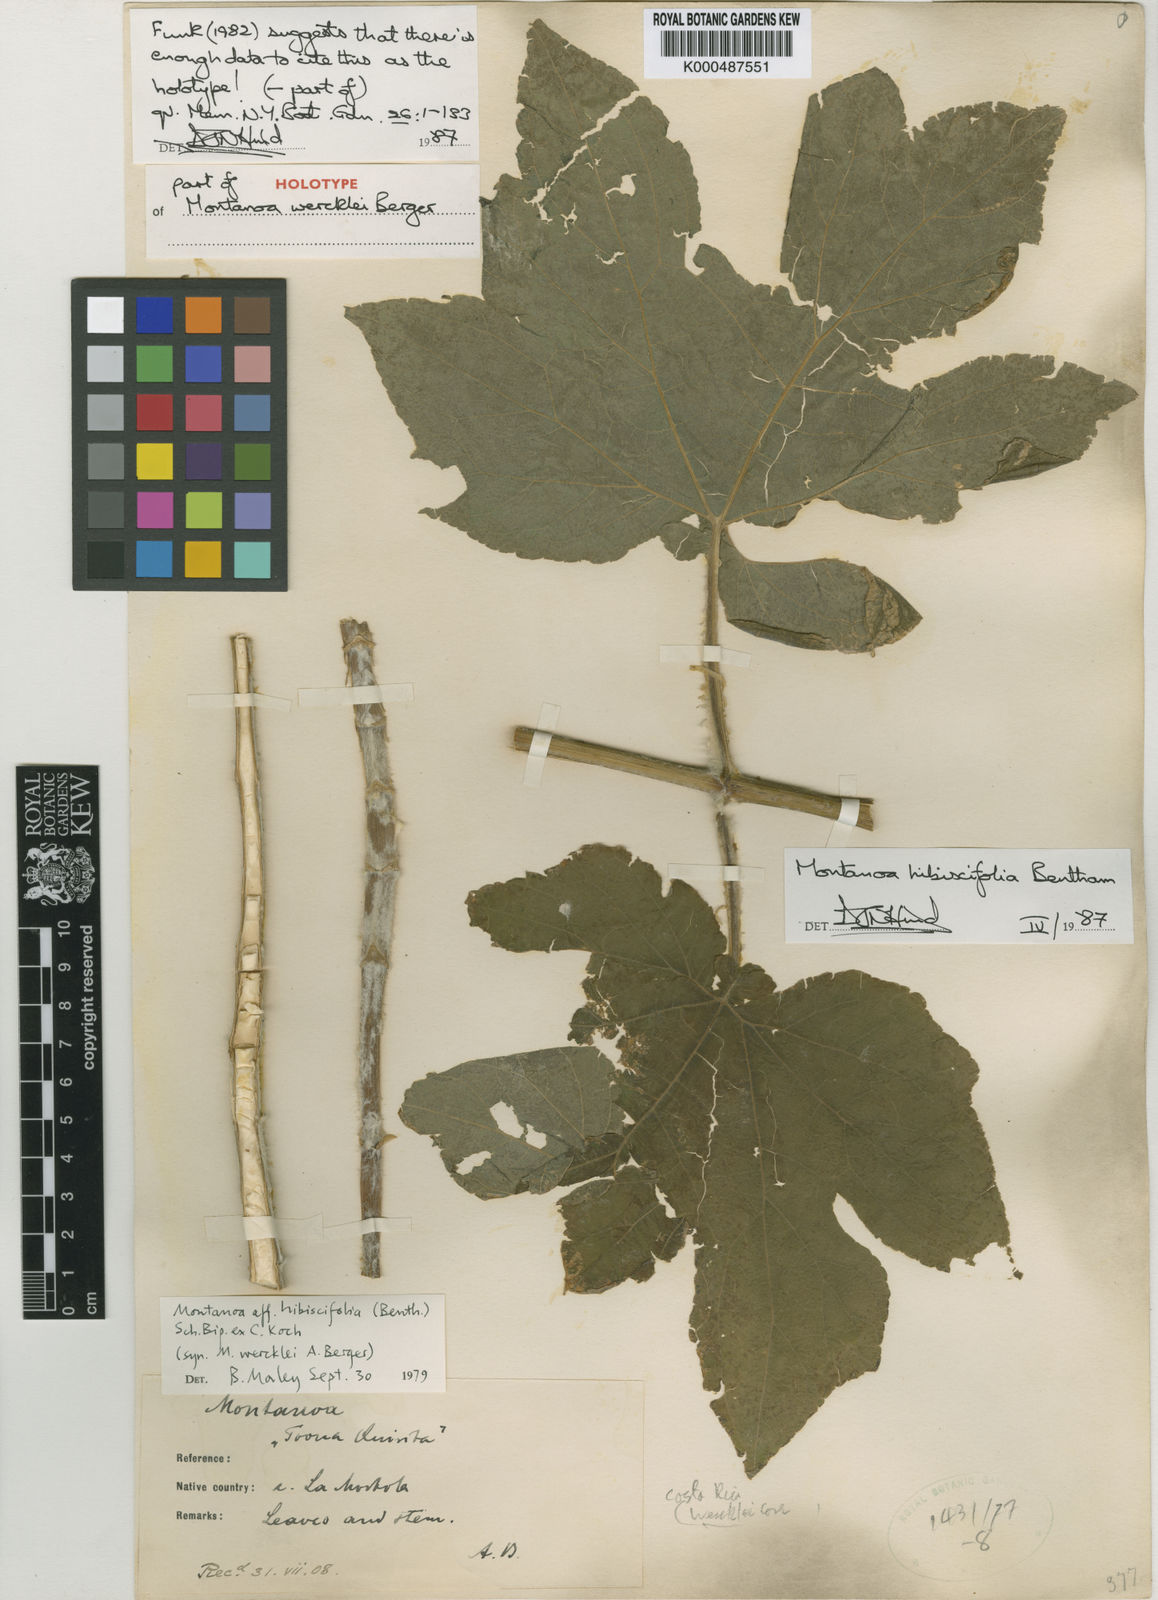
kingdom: Plantae
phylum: Tracheophyta
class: Magnoliopsida
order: Asterales
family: Asteraceae
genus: Montanoa
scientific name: Montanoa hibiscifolia
